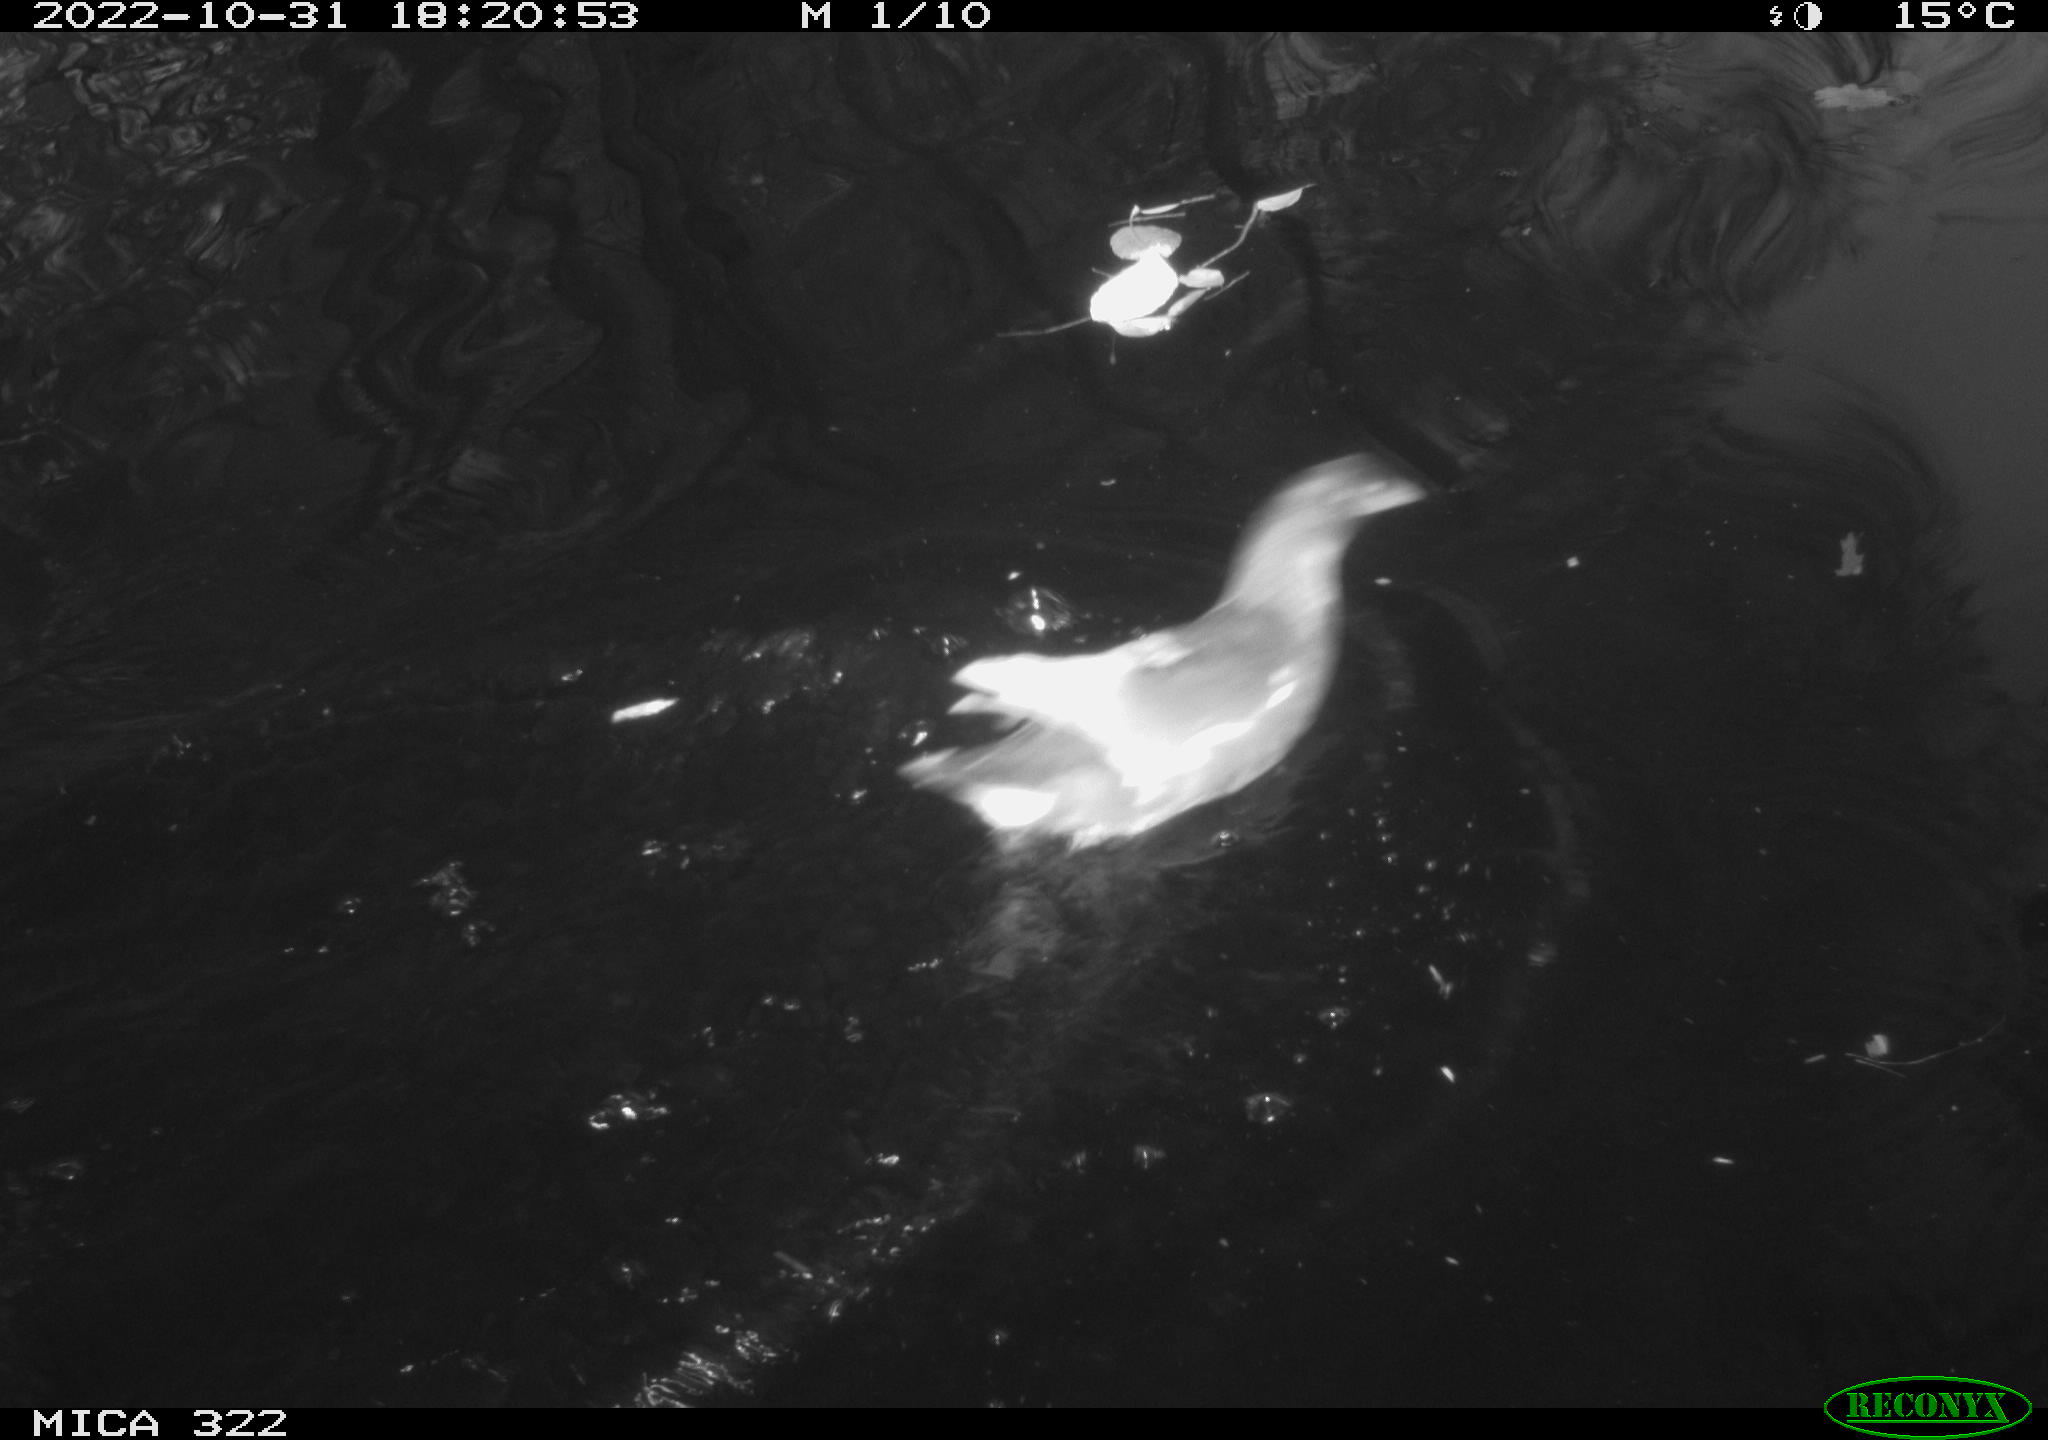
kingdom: Animalia
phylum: Chordata
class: Aves
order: Gruiformes
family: Rallidae
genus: Gallinula
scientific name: Gallinula chloropus
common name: Common moorhen
